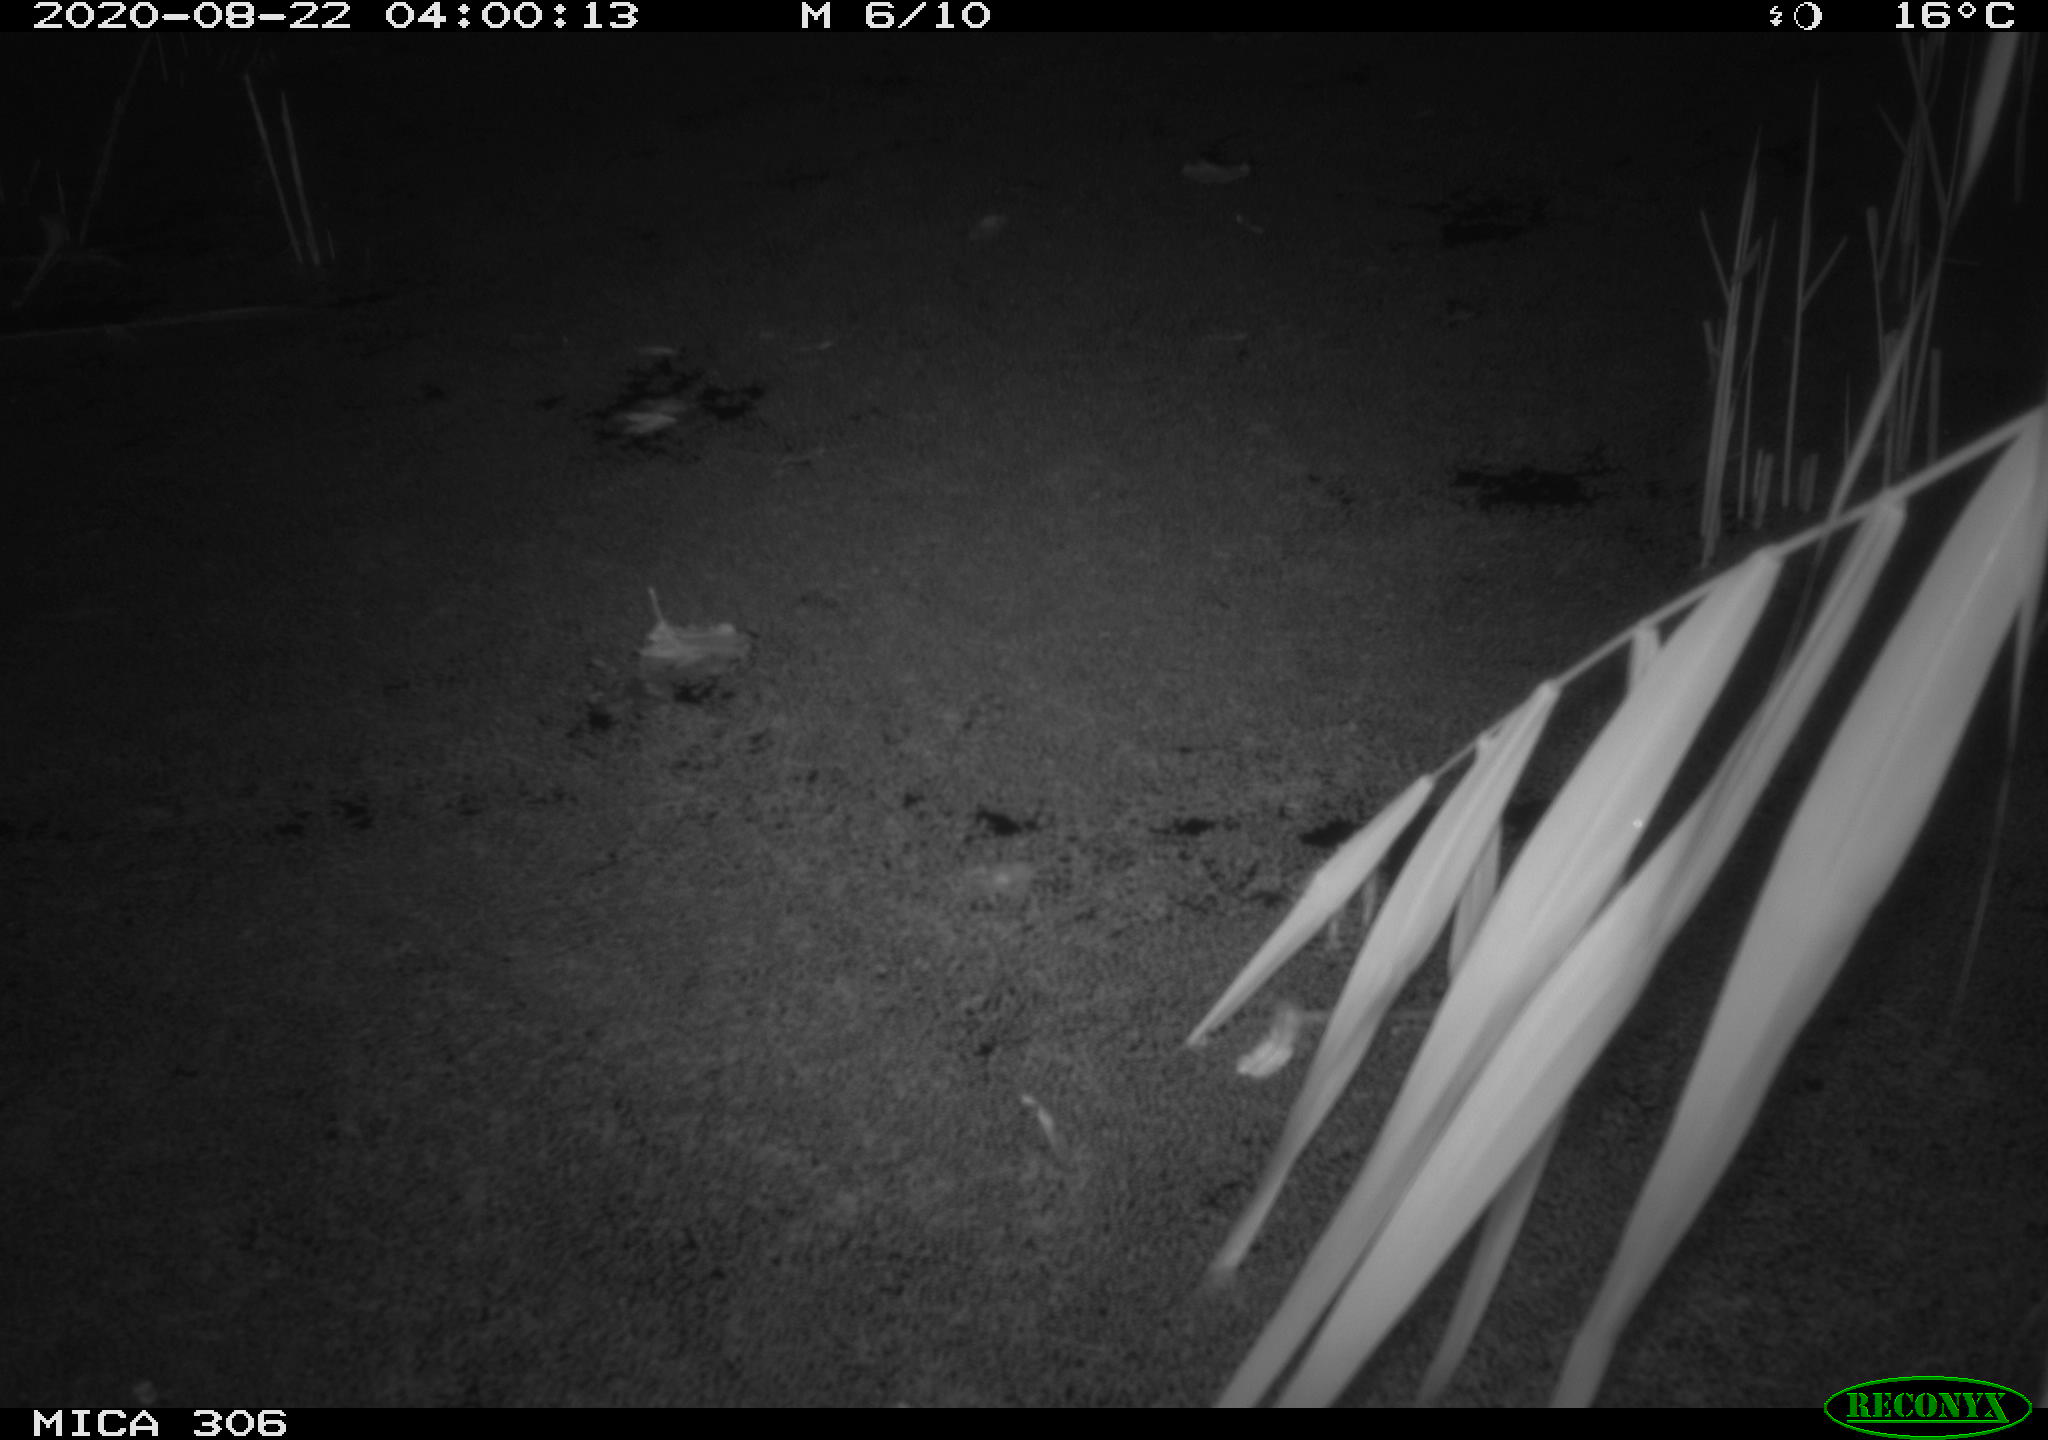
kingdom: Animalia
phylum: Chordata
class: Mammalia
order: Rodentia
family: Muridae
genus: Rattus
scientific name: Rattus norvegicus
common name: Brown rat
